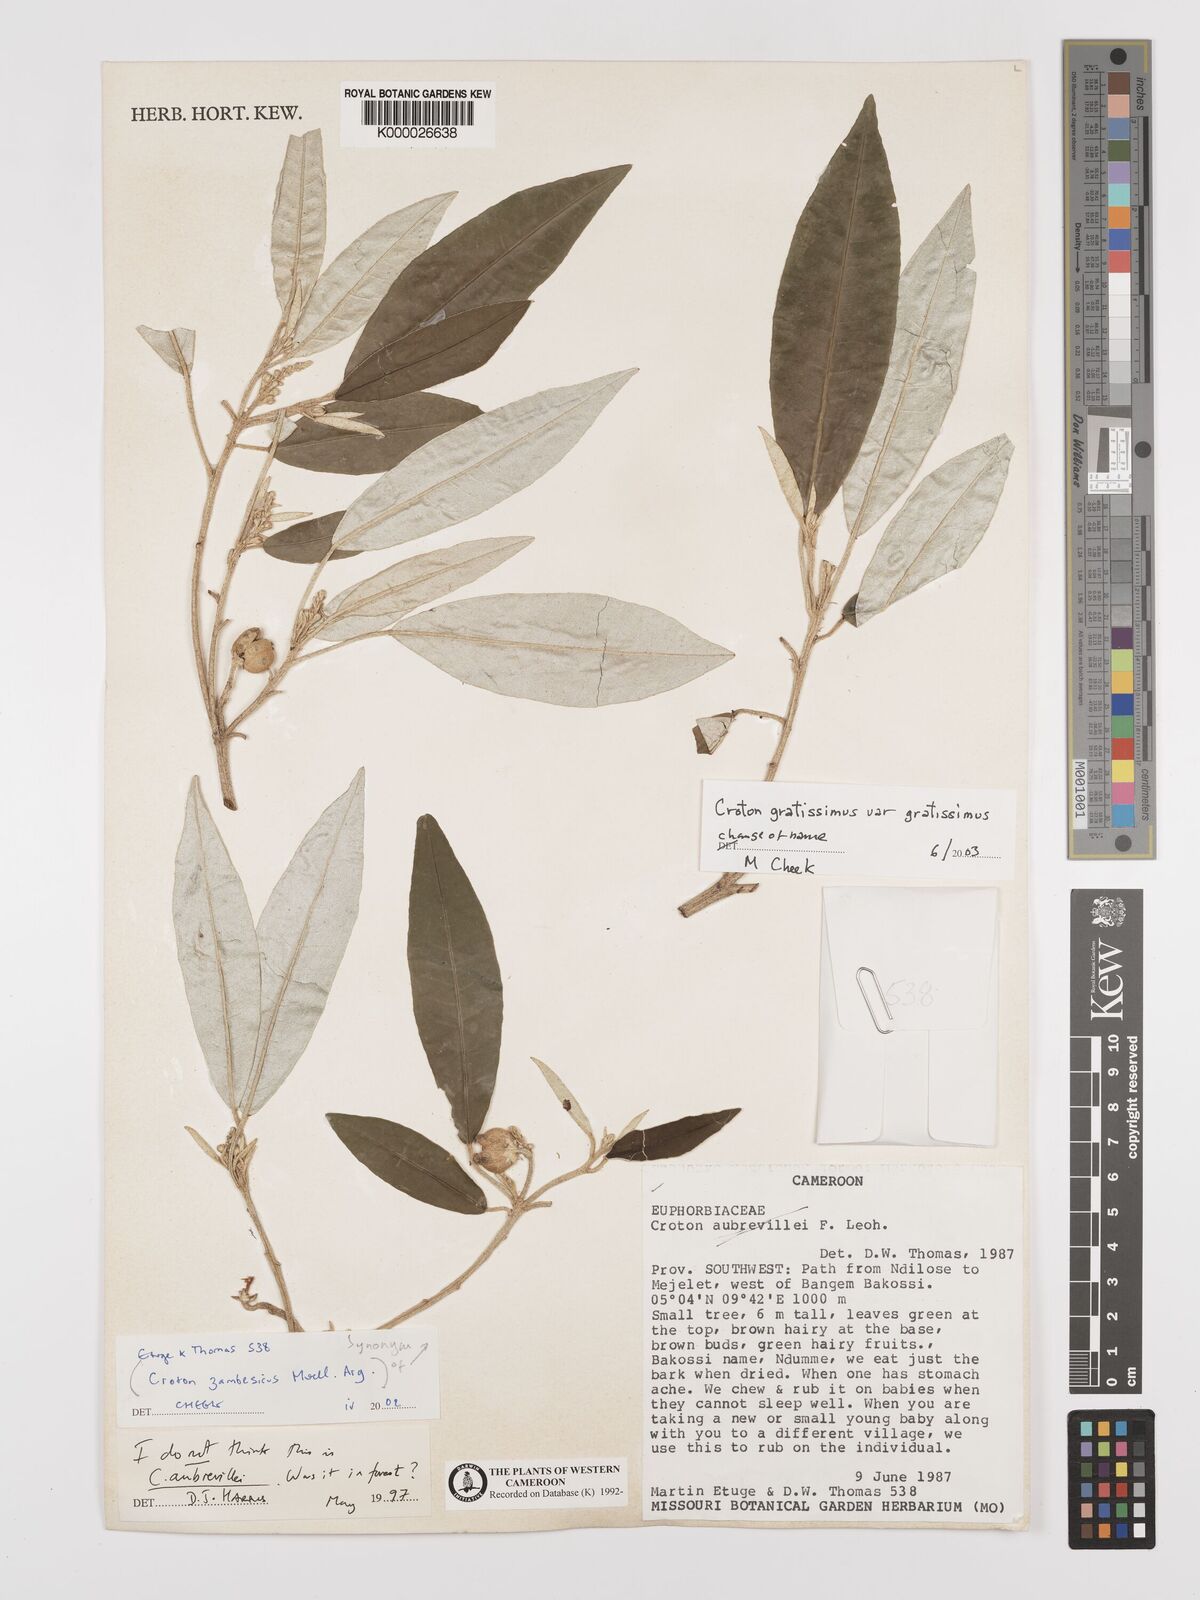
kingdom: Plantae
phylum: Tracheophyta
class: Magnoliopsida
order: Malpighiales
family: Euphorbiaceae
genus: Croton
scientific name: Croton gratissimus
